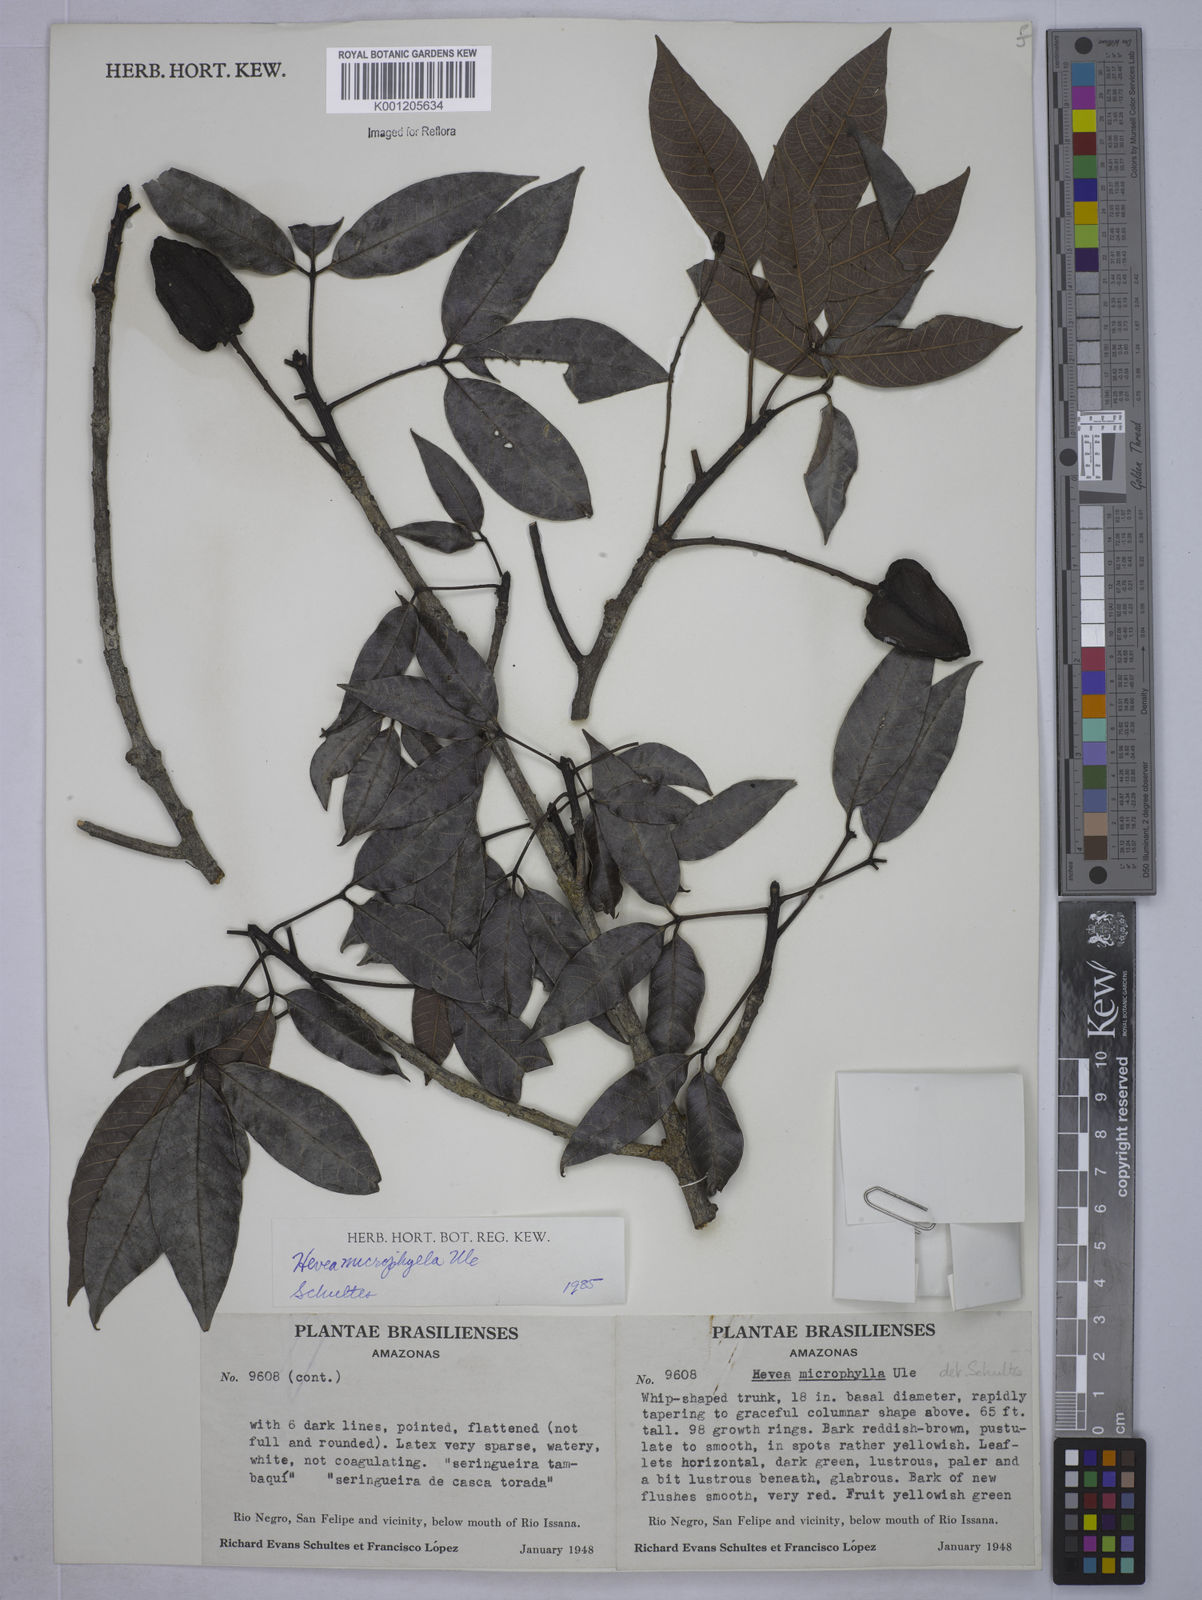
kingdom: Plantae
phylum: Tracheophyta
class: Magnoliopsida
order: Malpighiales
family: Euphorbiaceae
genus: Hevea
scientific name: Hevea microphylla
